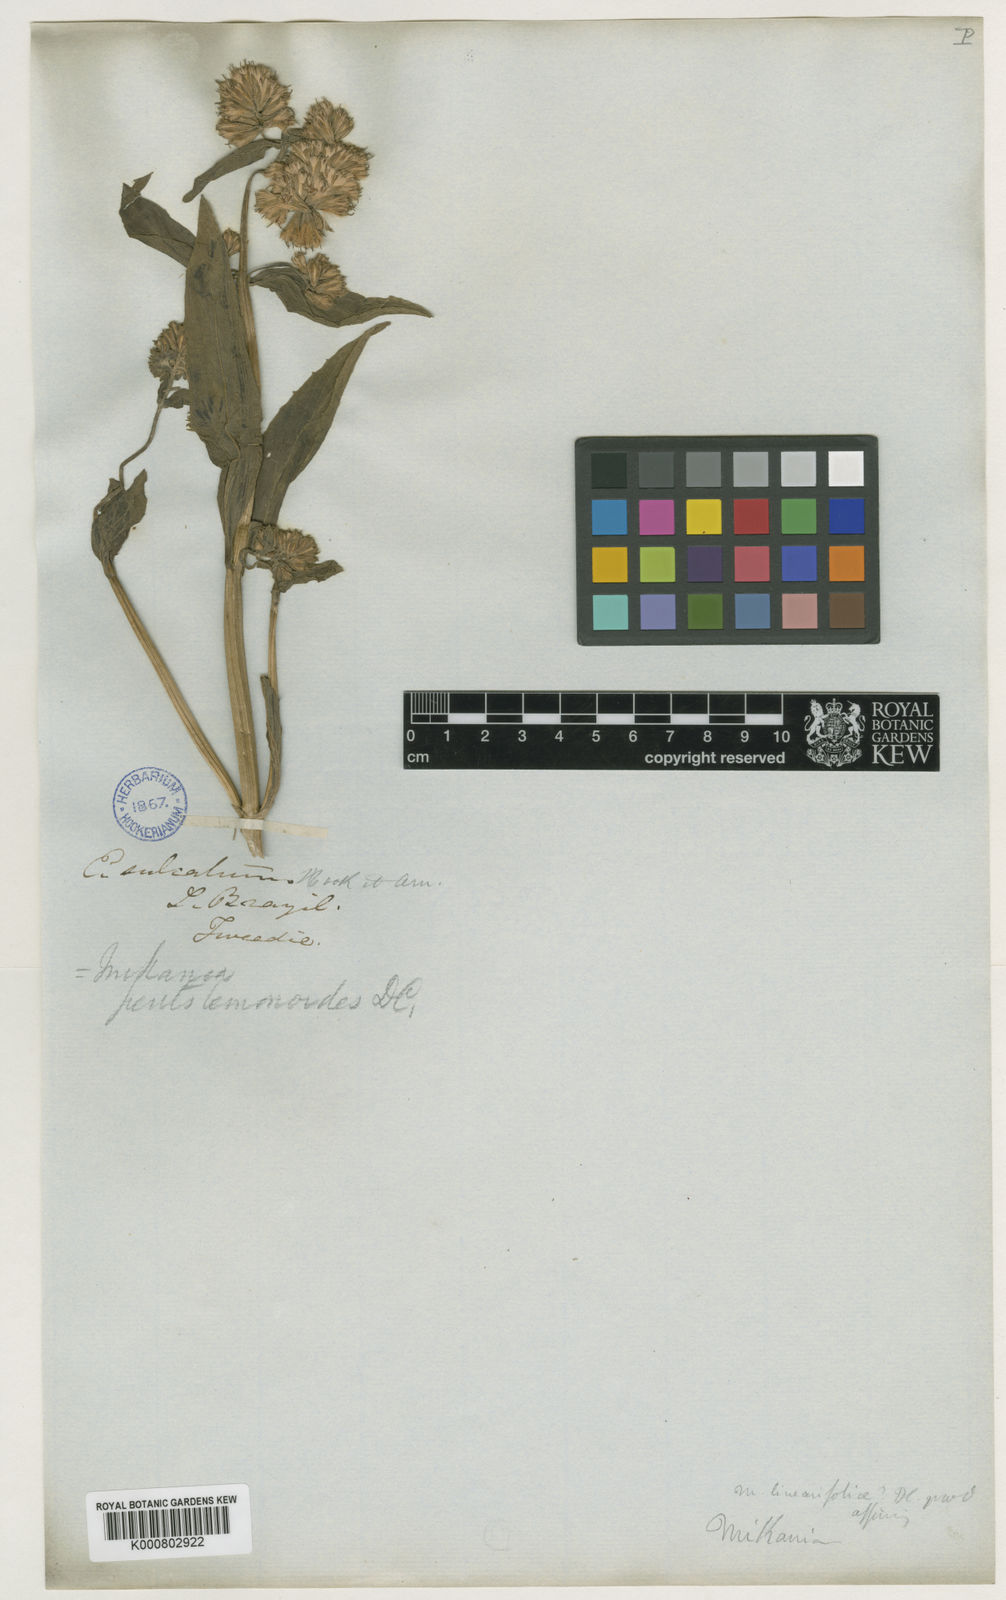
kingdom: Plantae
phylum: Tracheophyta
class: Magnoliopsida
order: Asterales
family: Asteraceae
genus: Mikania
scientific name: Mikania sulcata
